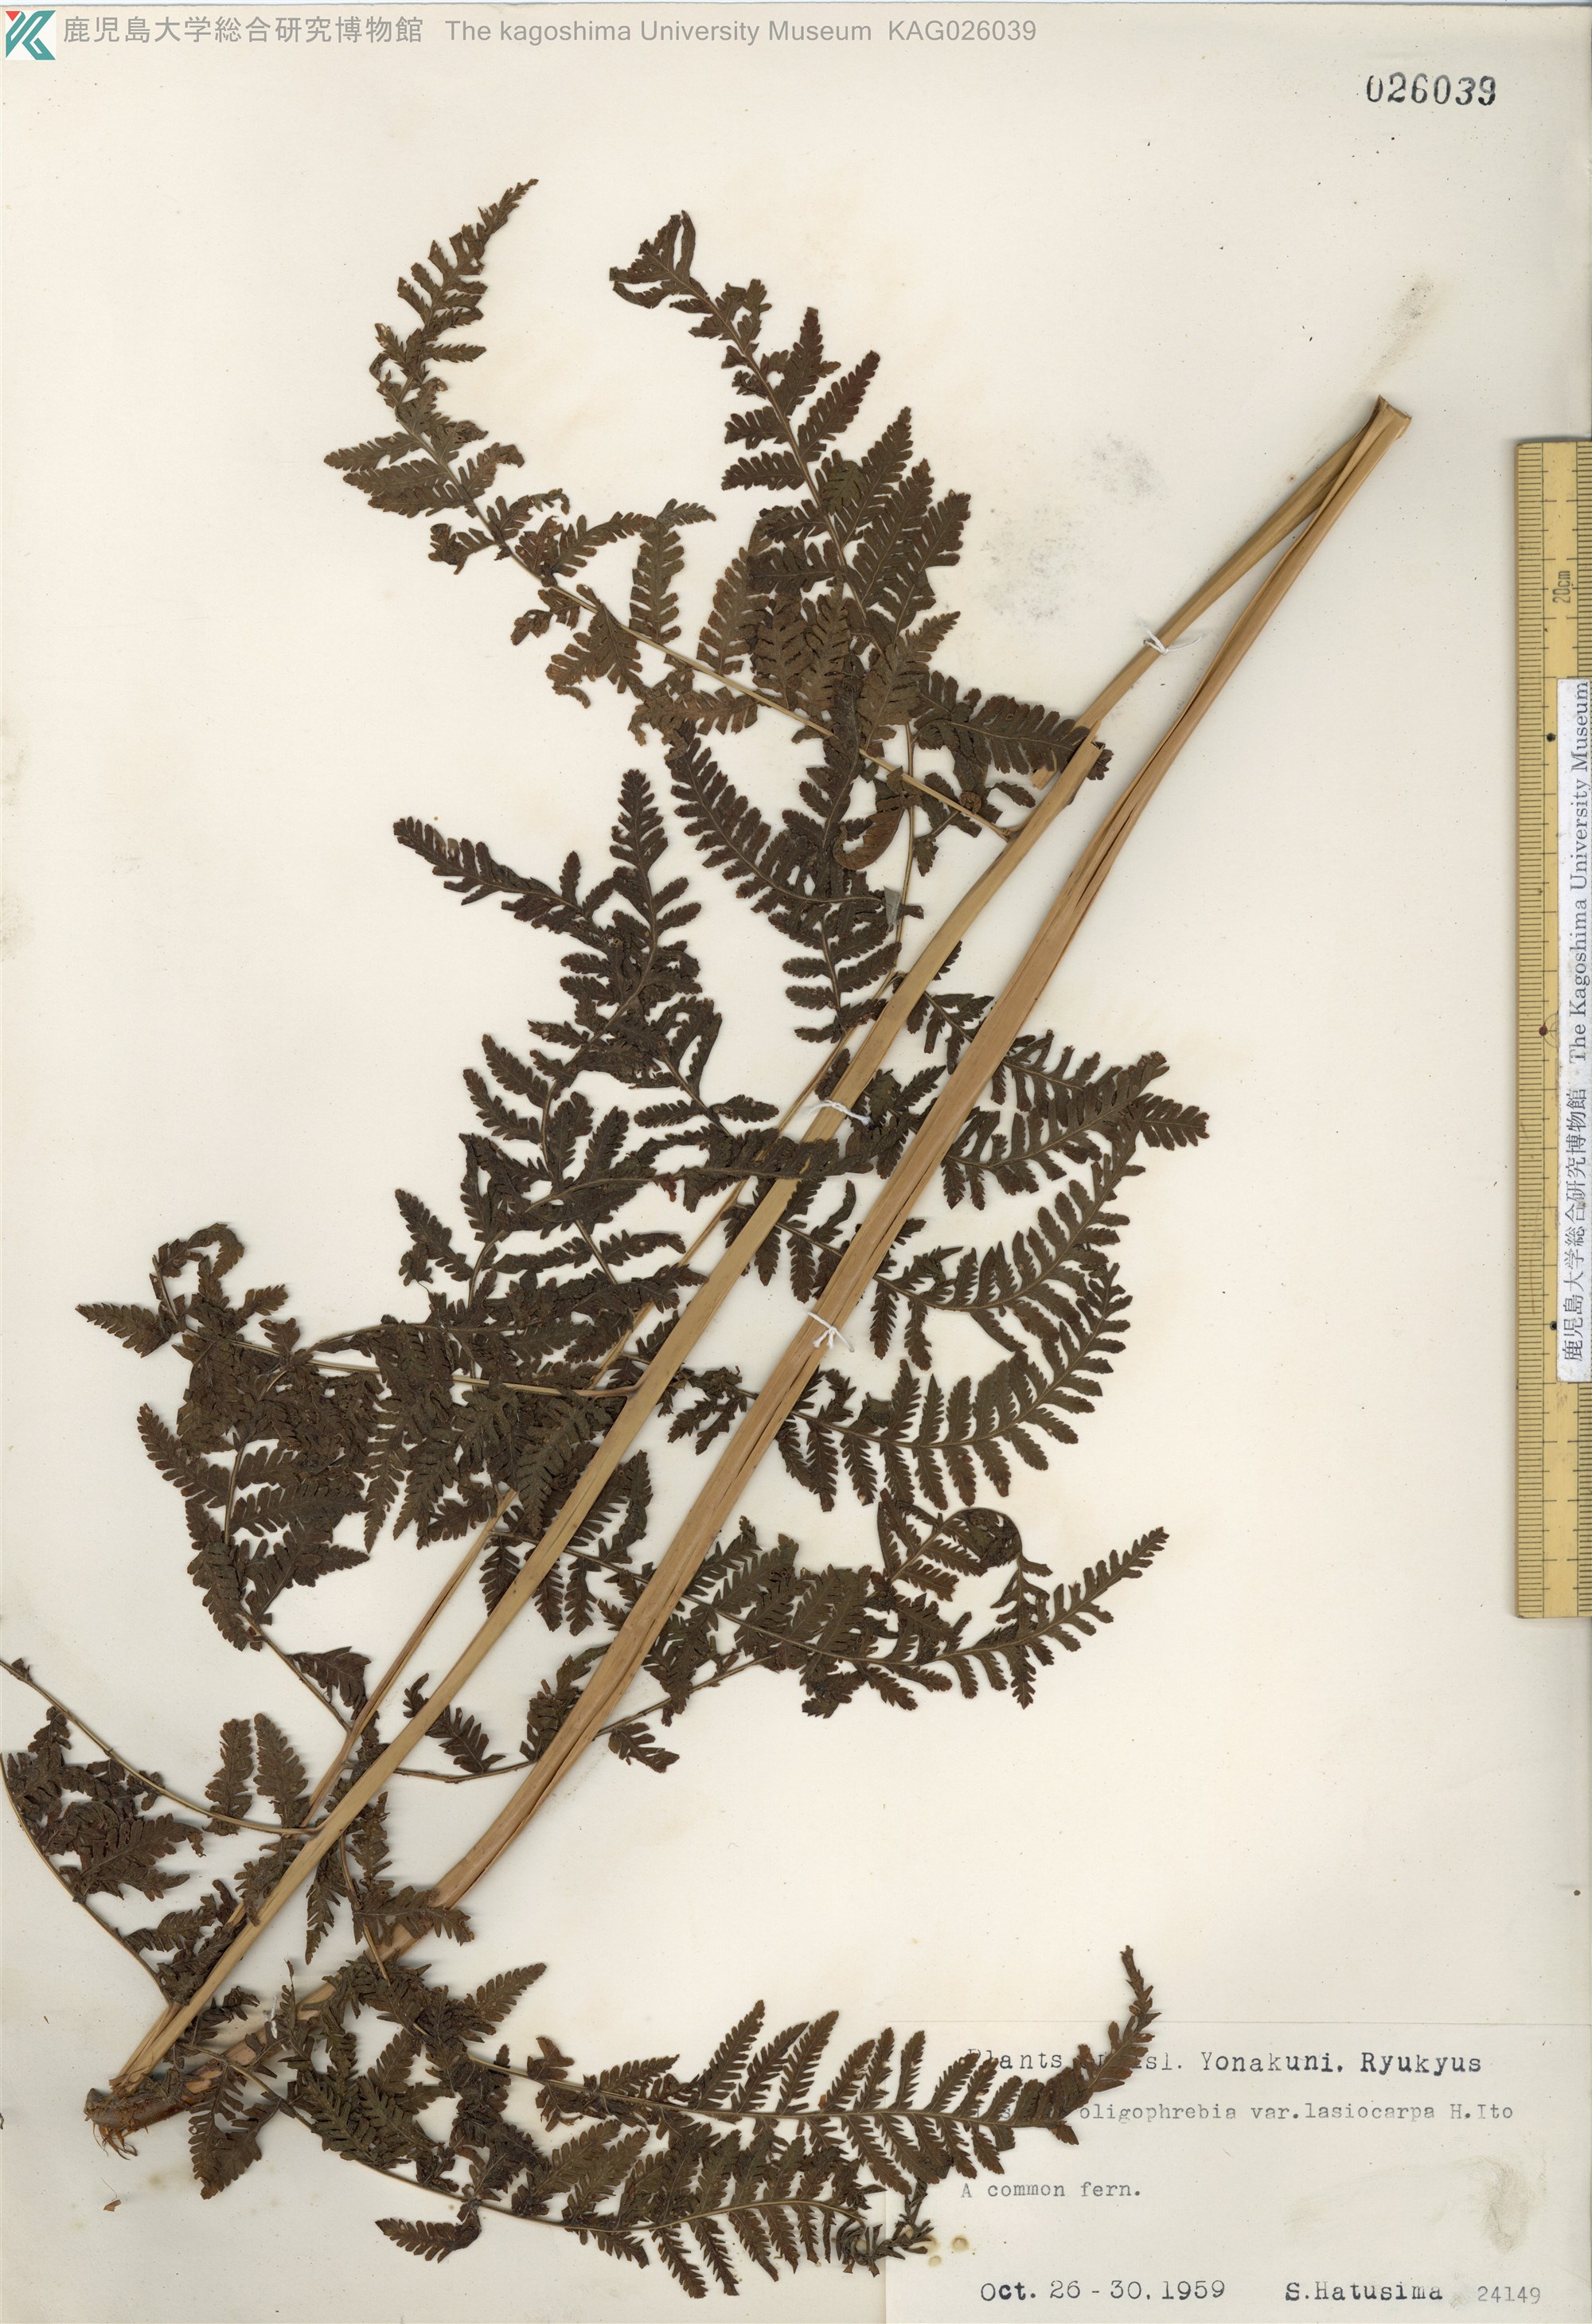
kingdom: Plantae
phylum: Tracheophyta
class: Polypodiopsida
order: Polypodiales
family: Thelypteridaceae
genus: Macrothelypteris
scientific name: Macrothelypteris oligophlebia
